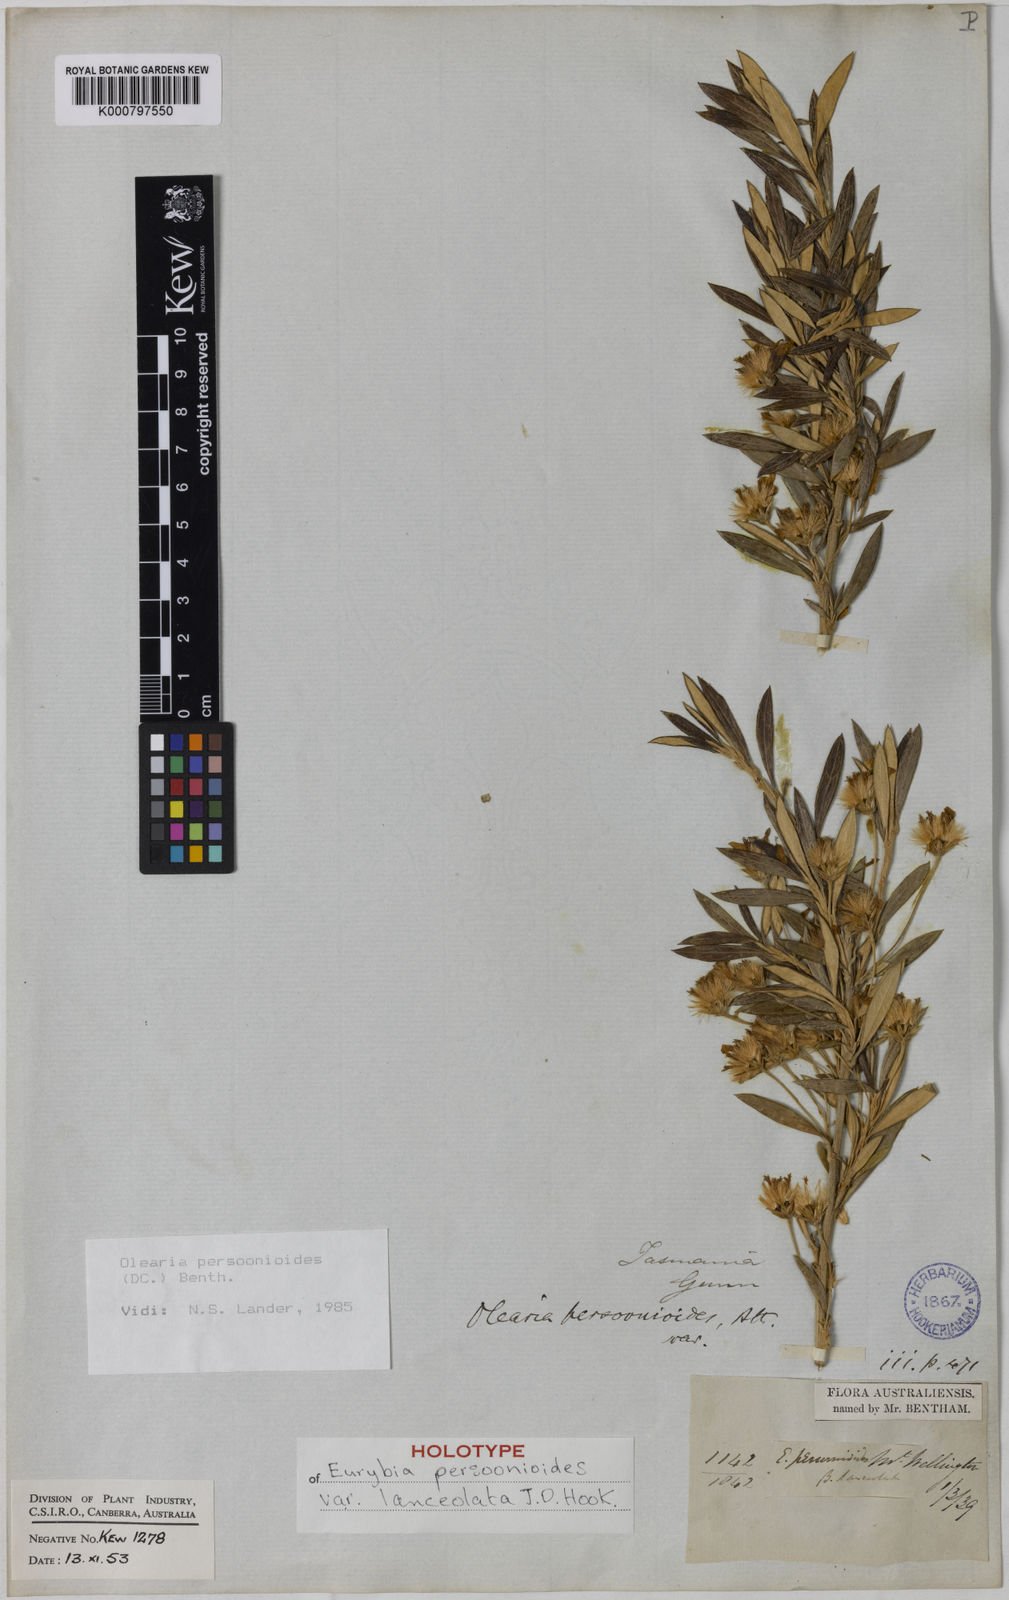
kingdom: Plantae
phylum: Tracheophyta
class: Magnoliopsida
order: Asterales
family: Asteraceae
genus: Olearia
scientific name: Olearia persoonioides
